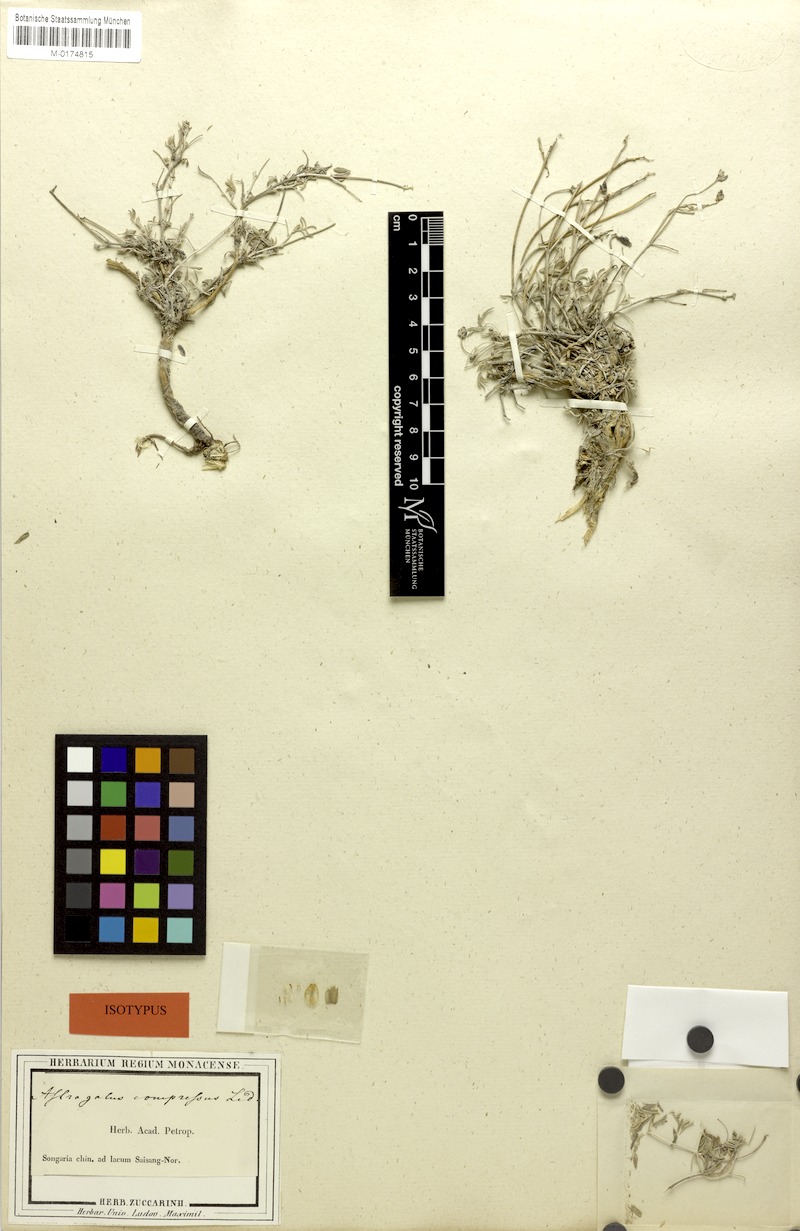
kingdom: Plantae
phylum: Tracheophyta
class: Magnoliopsida
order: Fabales
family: Fabaceae
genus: Astragalus
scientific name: Astragalus compressus
